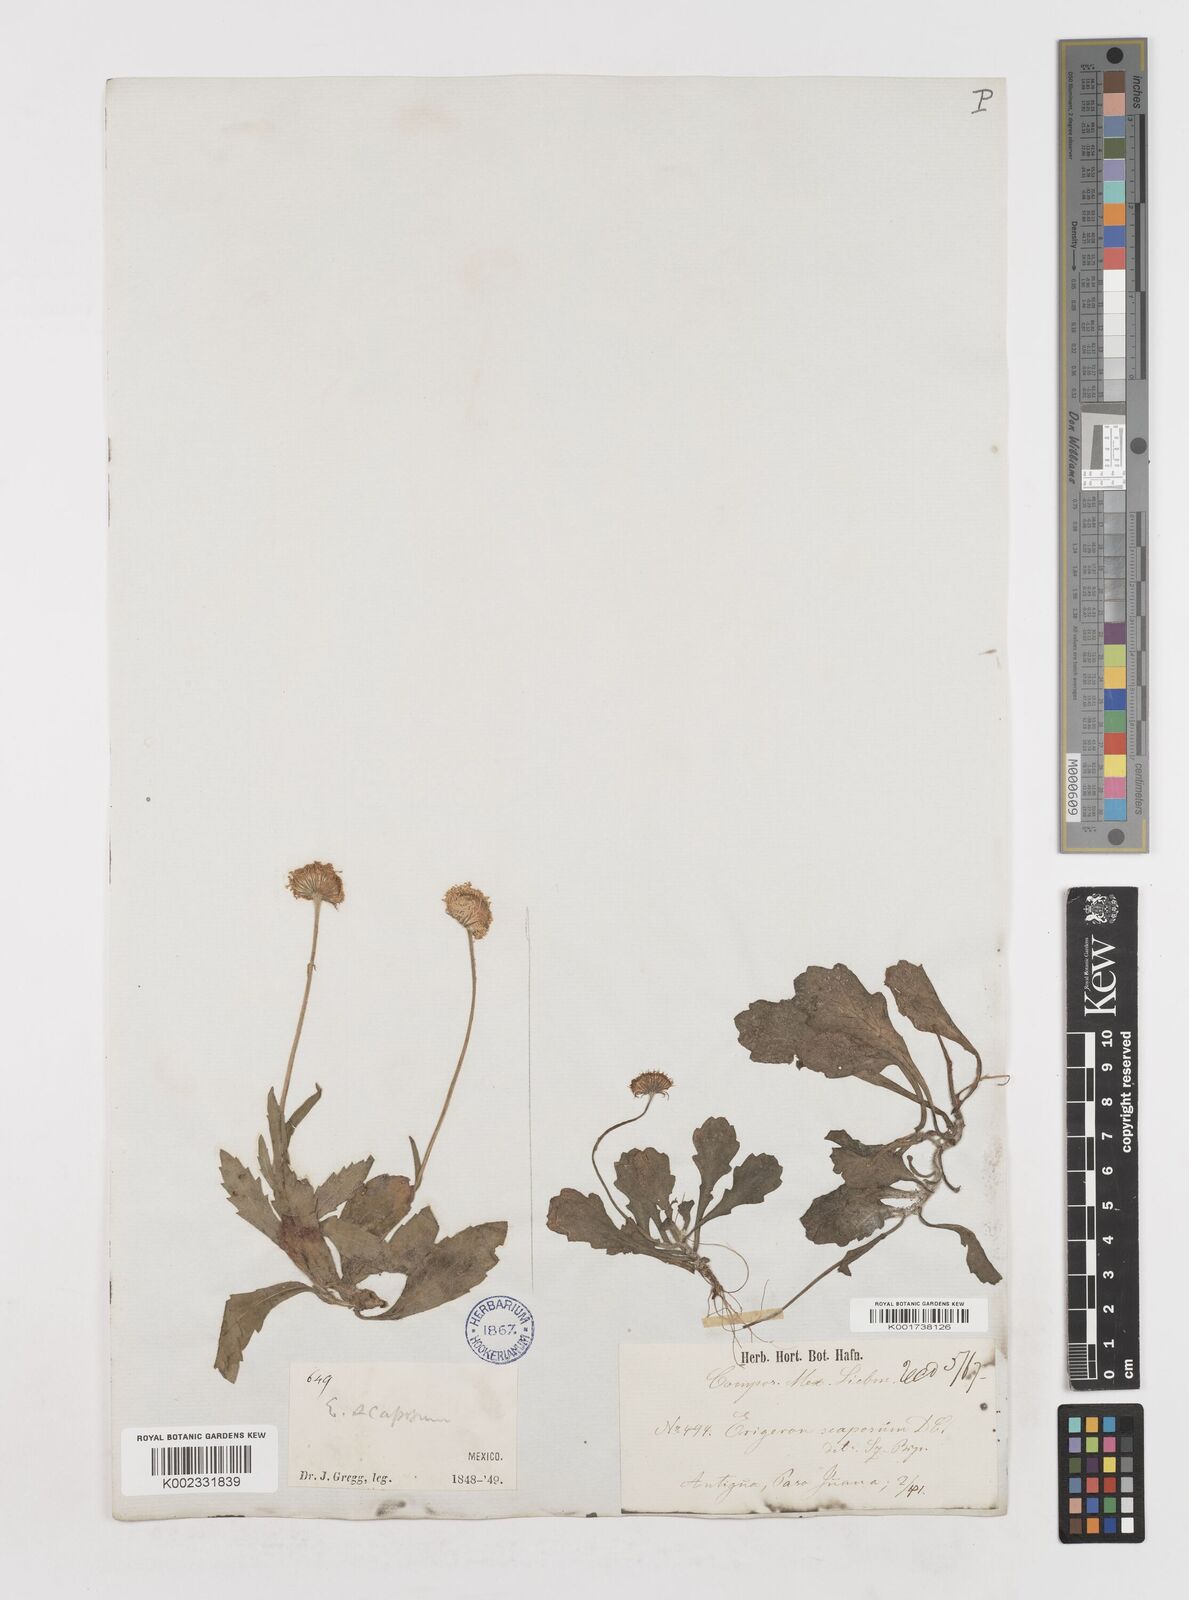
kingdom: Plantae
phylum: Tracheophyta
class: Magnoliopsida
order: Asterales
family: Asteraceae
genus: Erigeron
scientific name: Erigeron longipes
